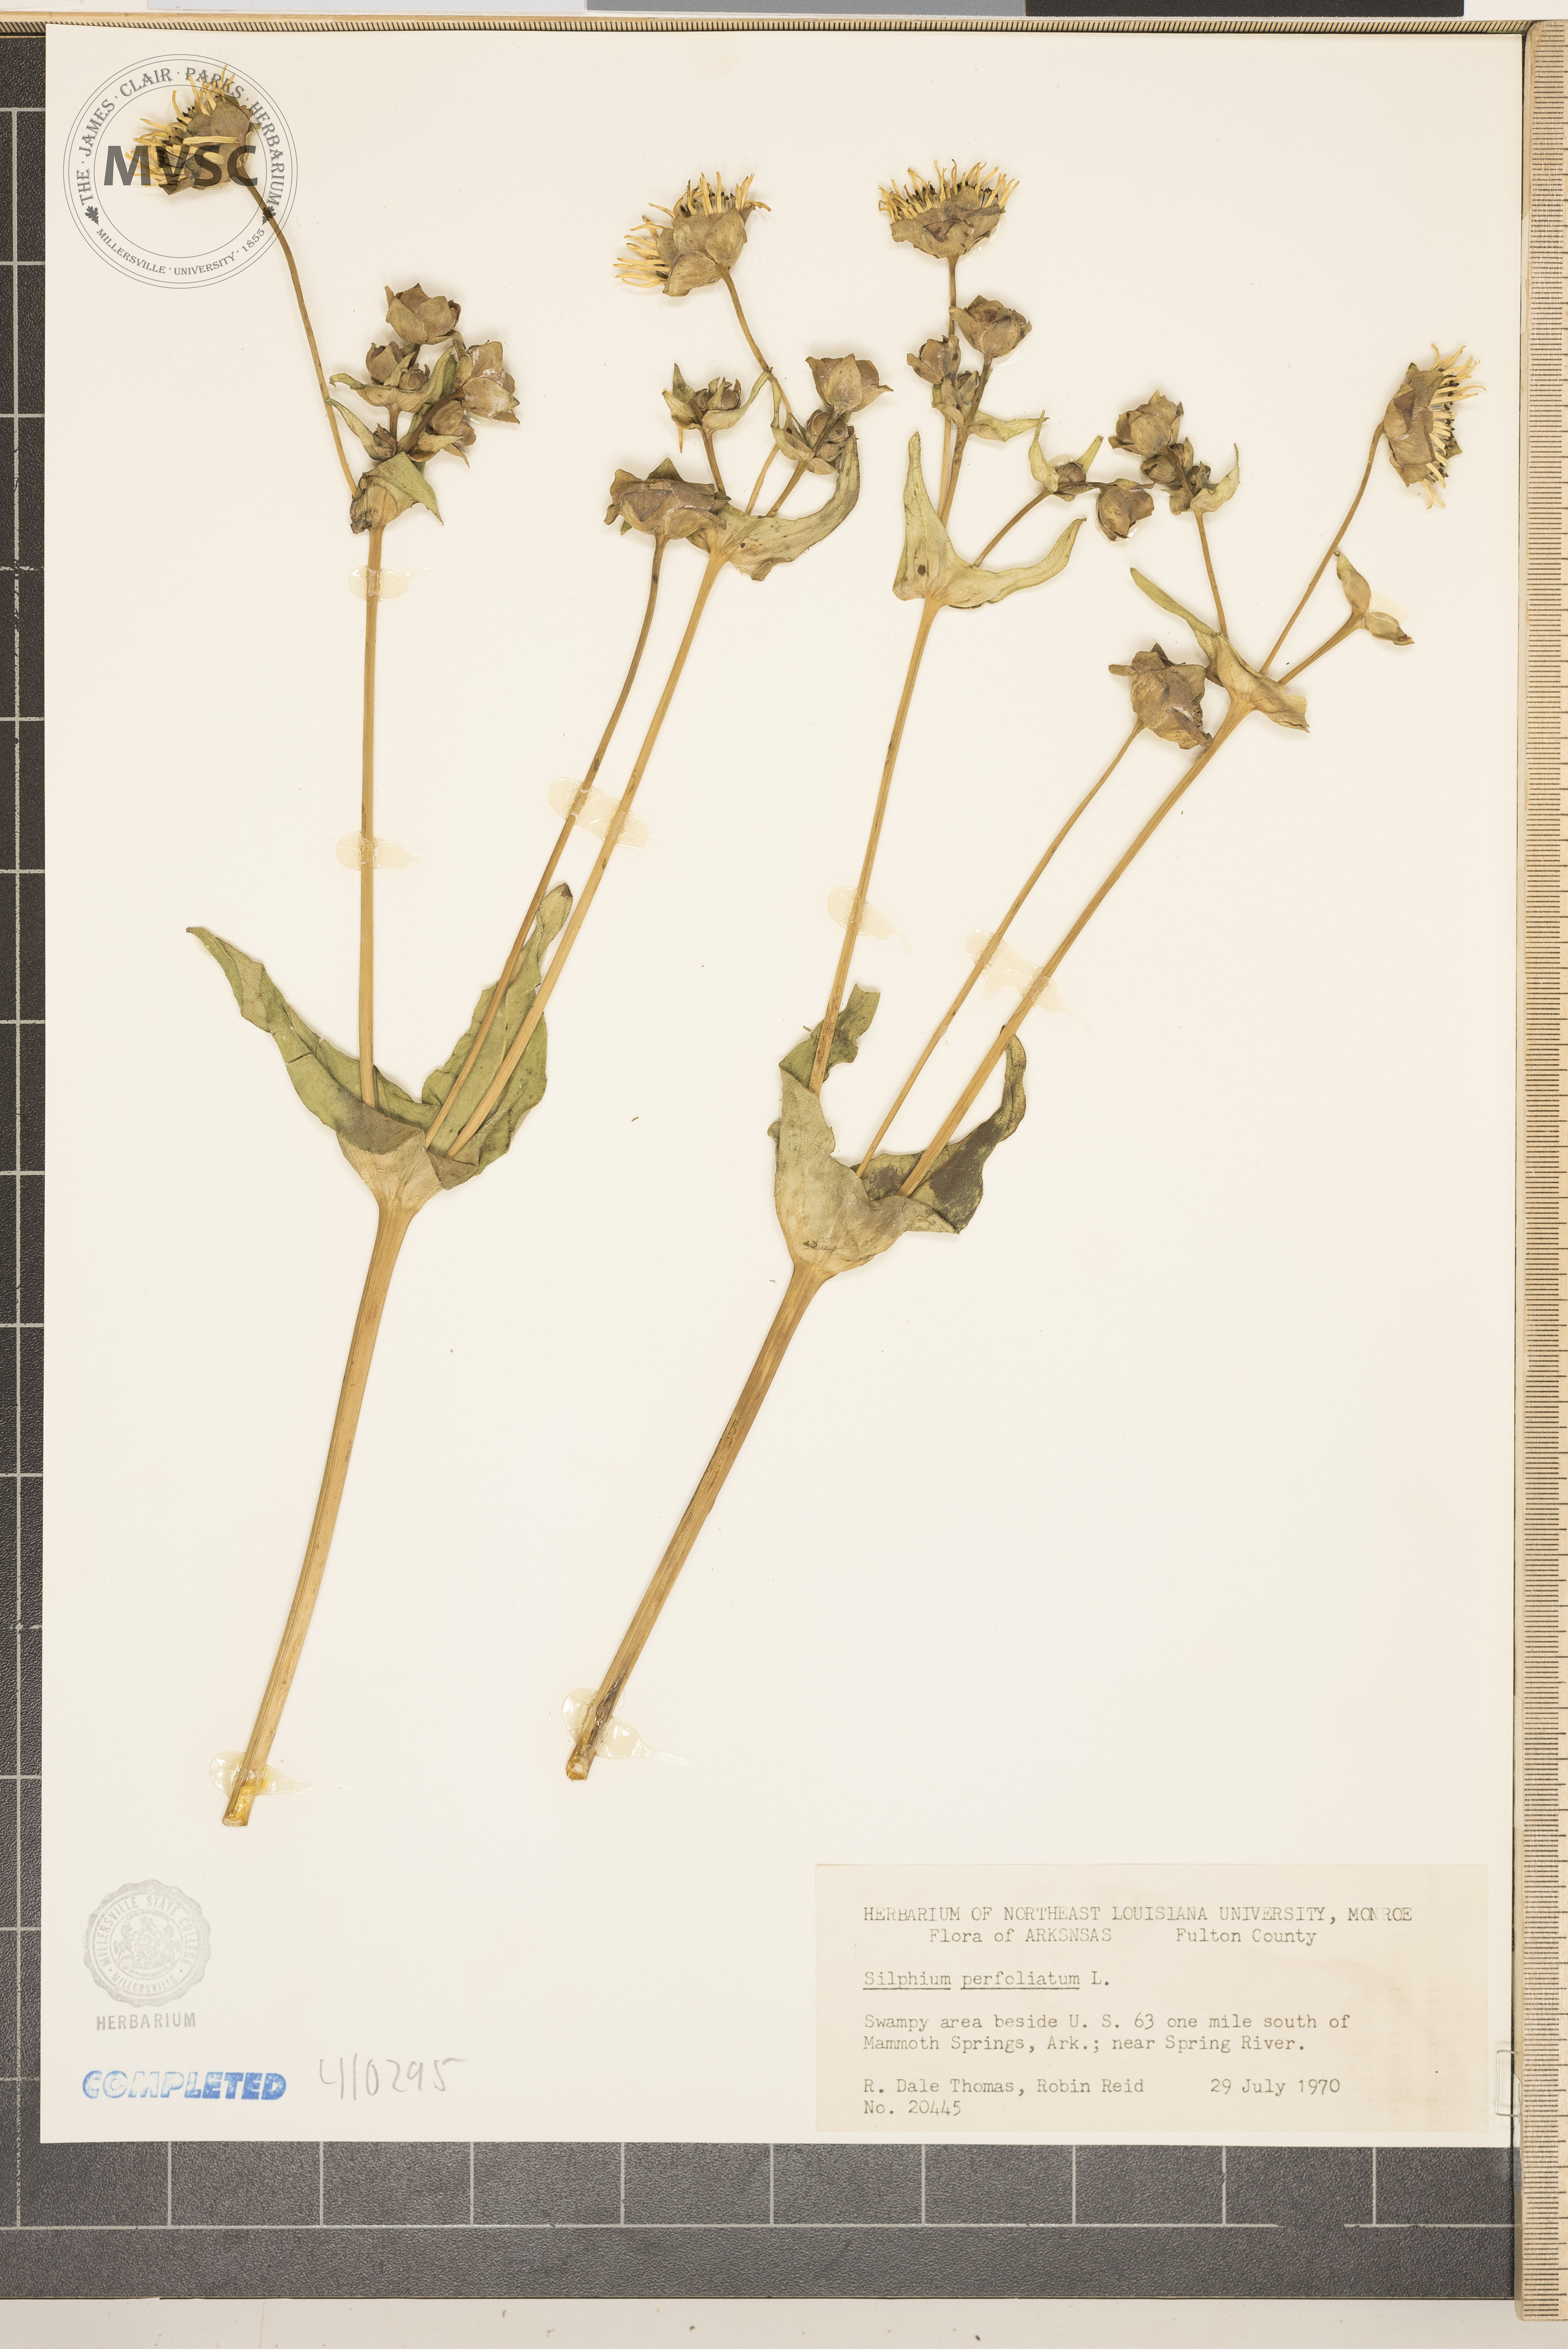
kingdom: Plantae
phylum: Tracheophyta
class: Magnoliopsida
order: Asterales
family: Asteraceae
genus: Silphium
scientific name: Silphium perfoliatum
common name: Cup-plant
